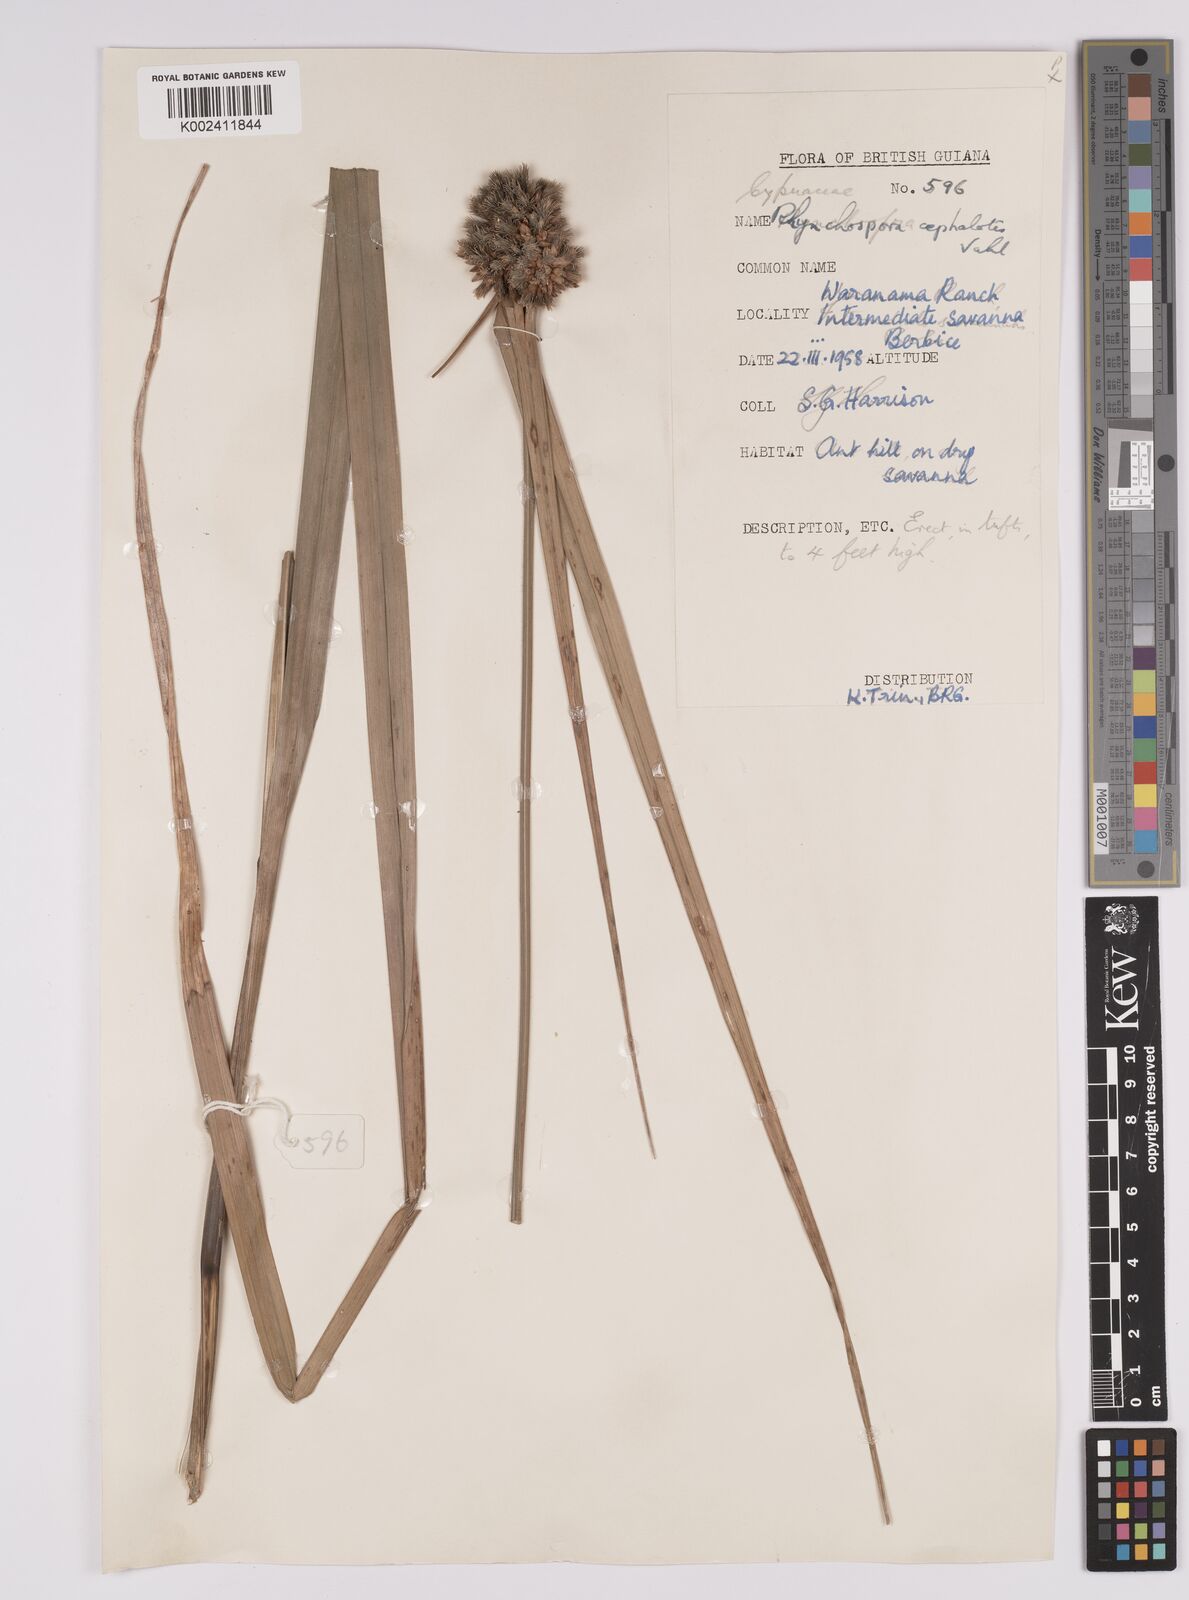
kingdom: Plantae
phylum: Tracheophyta
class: Liliopsida
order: Poales
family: Cyperaceae
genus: Rhynchospora
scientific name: Rhynchospora cephalotes
